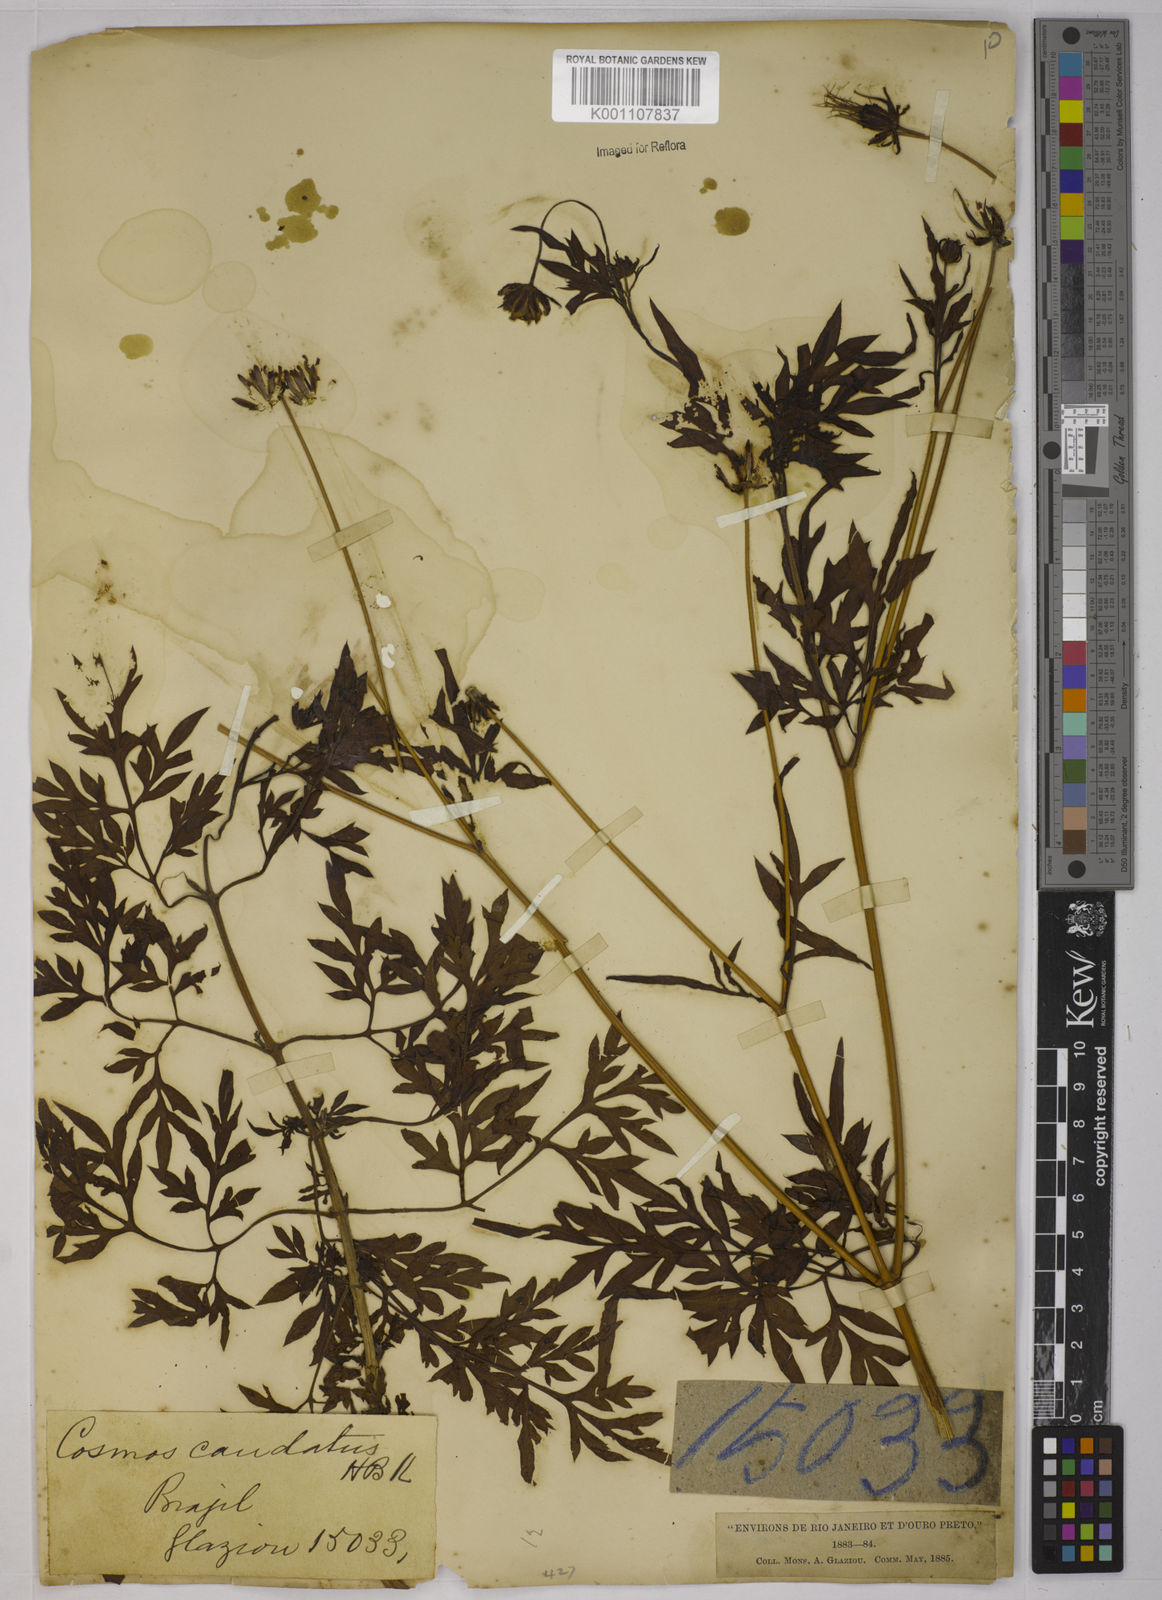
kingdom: Plantae
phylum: Tracheophyta
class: Magnoliopsida
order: Asterales
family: Asteraceae
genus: Cosmos
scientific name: Cosmos caudatus
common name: Wild cosmos
